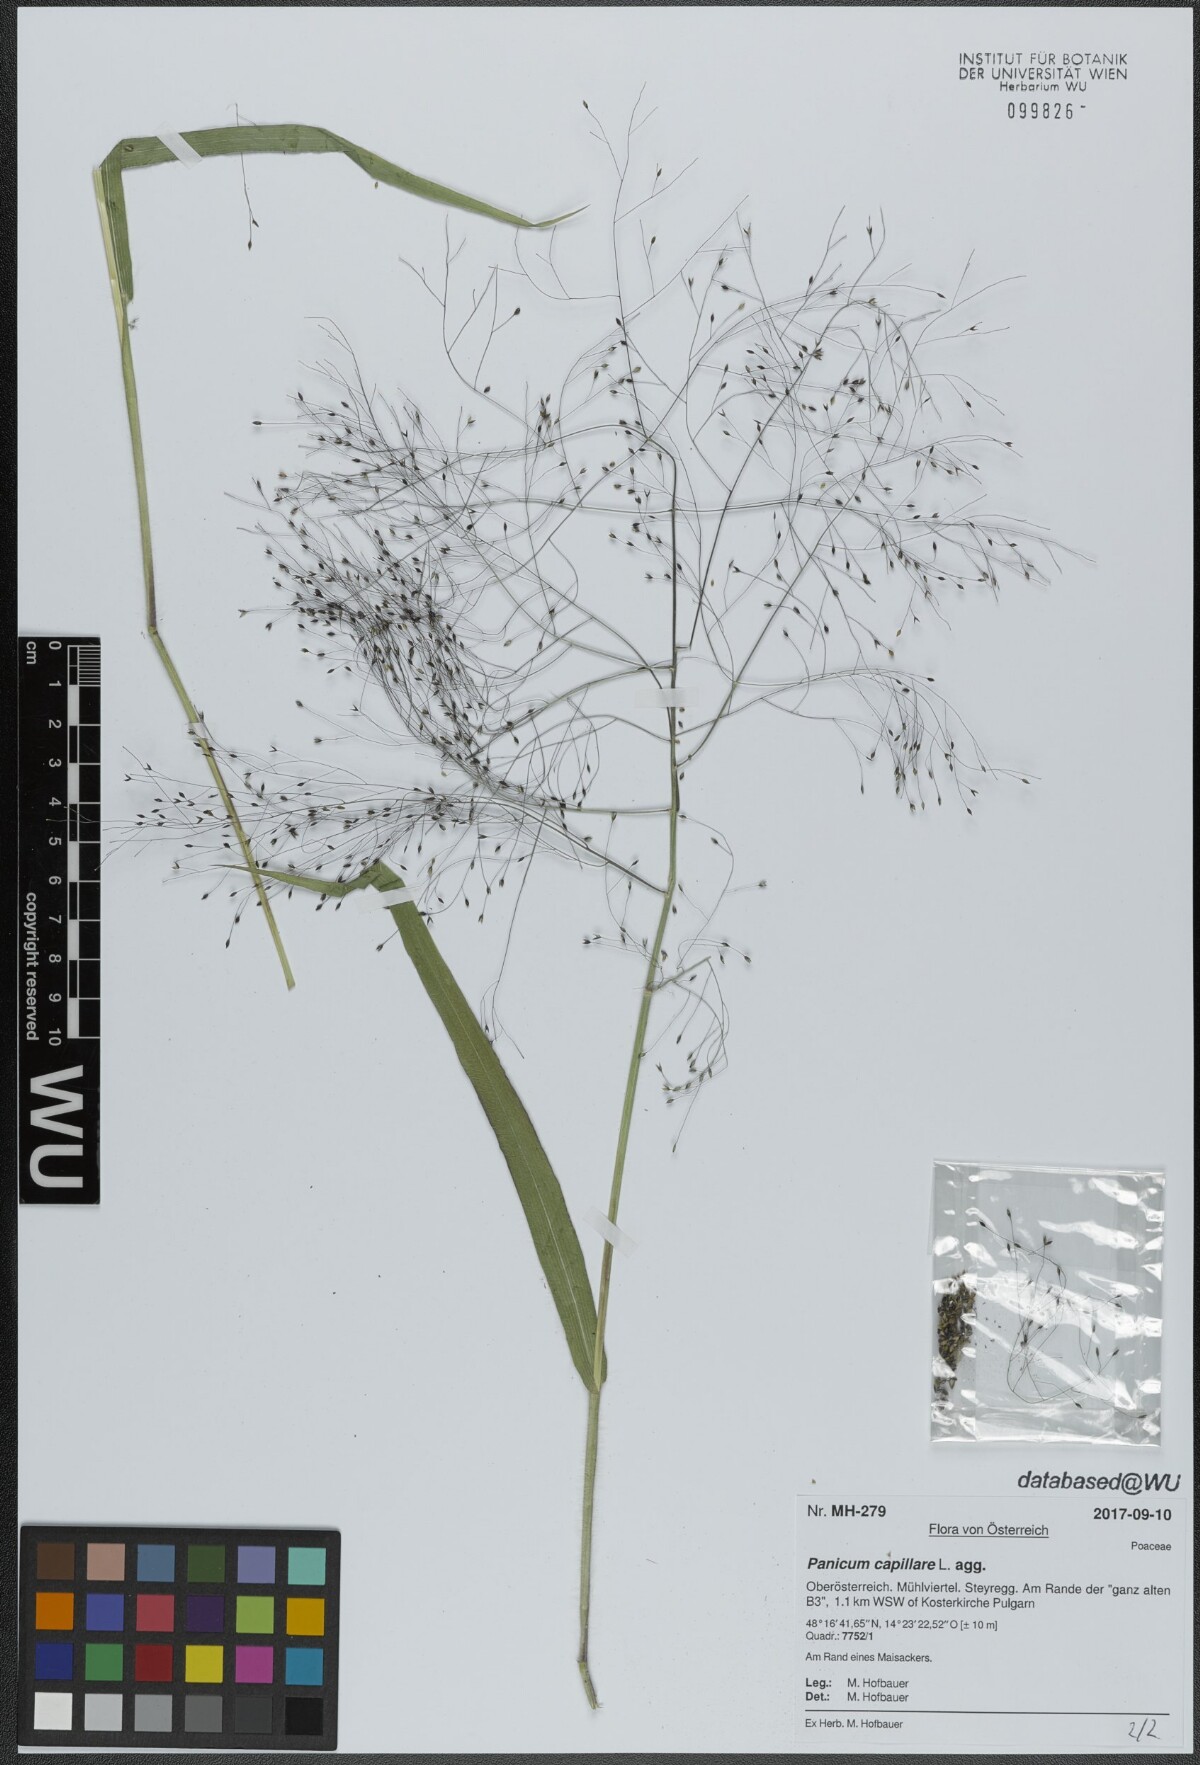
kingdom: Plantae
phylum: Tracheophyta
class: Liliopsida
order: Poales
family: Poaceae
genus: Panicum
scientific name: Panicum capillare
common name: Witch-grass
